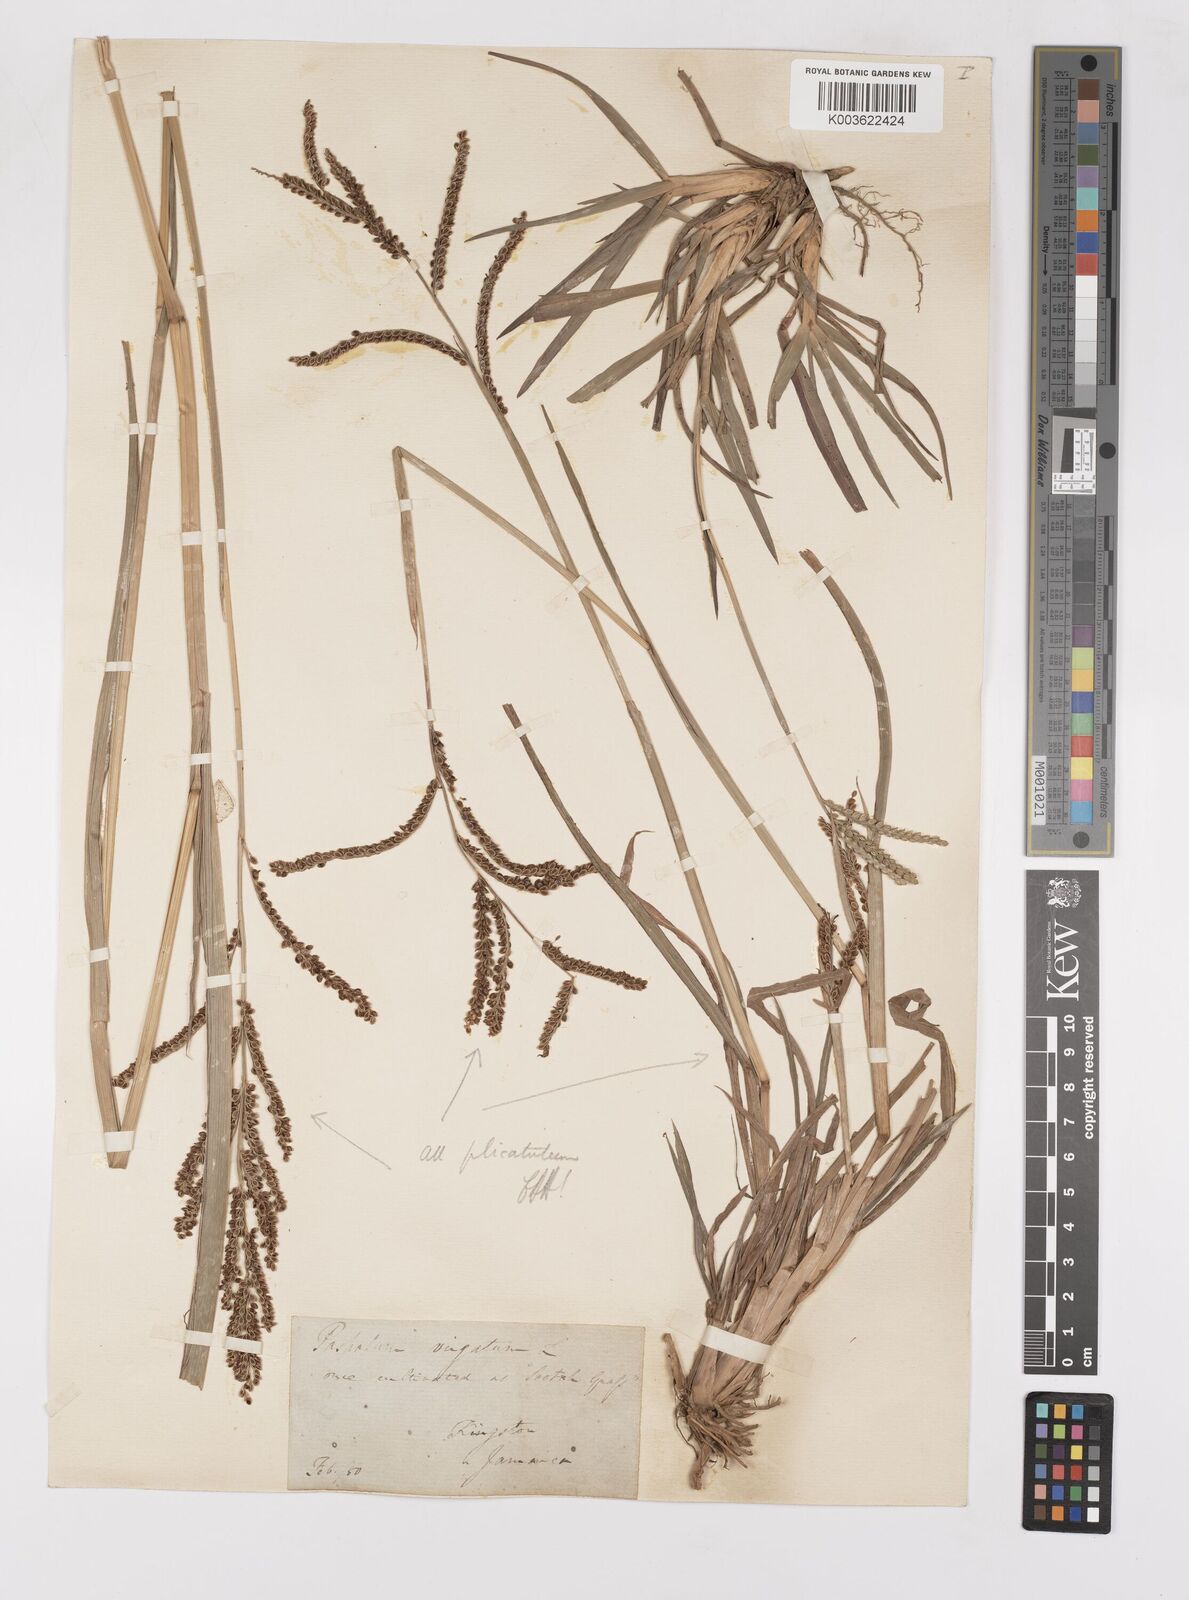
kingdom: Plantae
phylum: Tracheophyta
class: Liliopsida
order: Poales
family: Poaceae
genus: Paspalum
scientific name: Paspalum virgatum
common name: Talquezal
